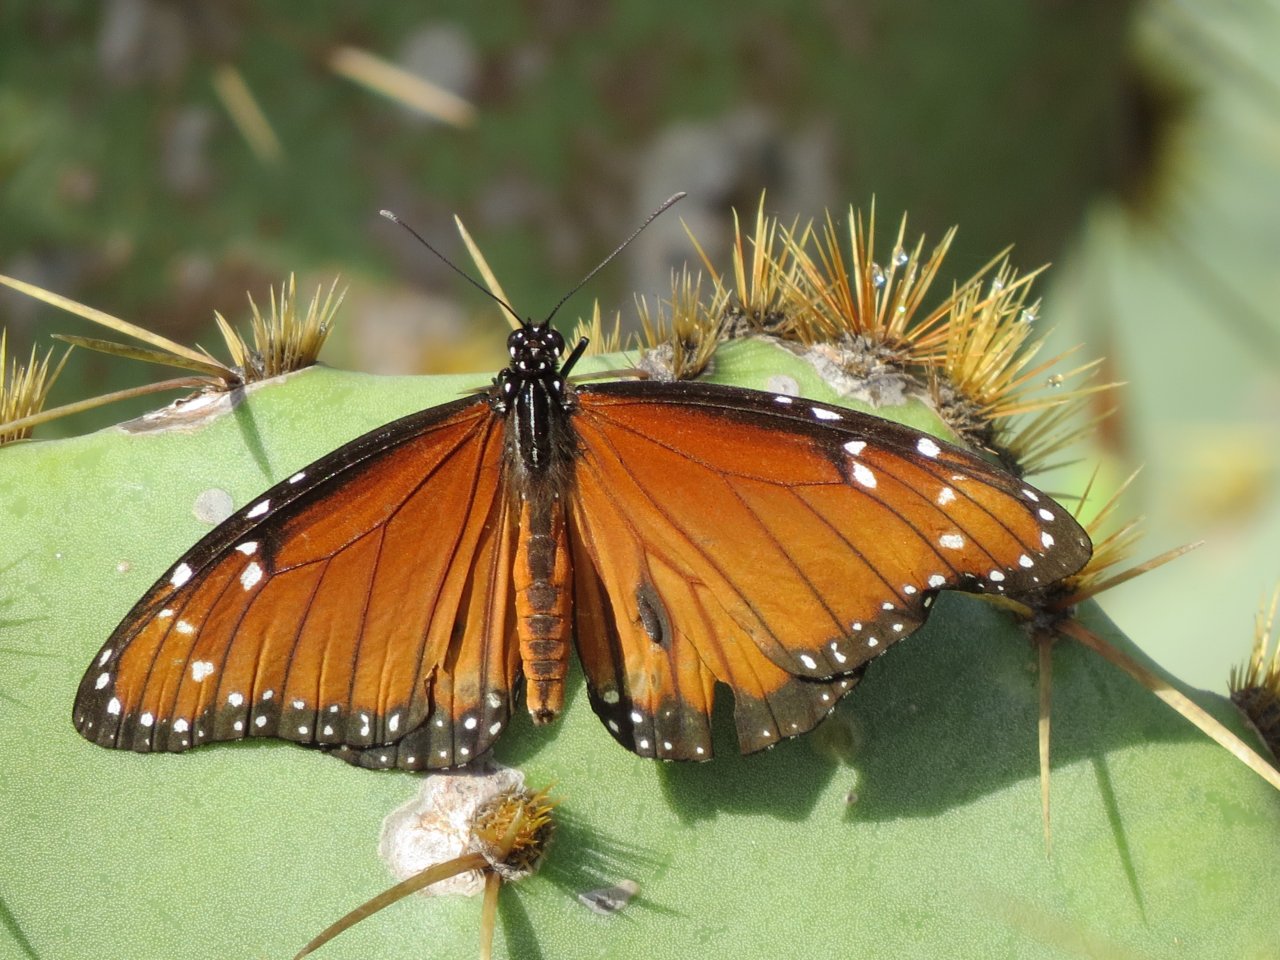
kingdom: Animalia
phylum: Arthropoda
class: Insecta
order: Lepidoptera
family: Nymphalidae
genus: Danaus
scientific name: Danaus eresimus
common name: Soldier
